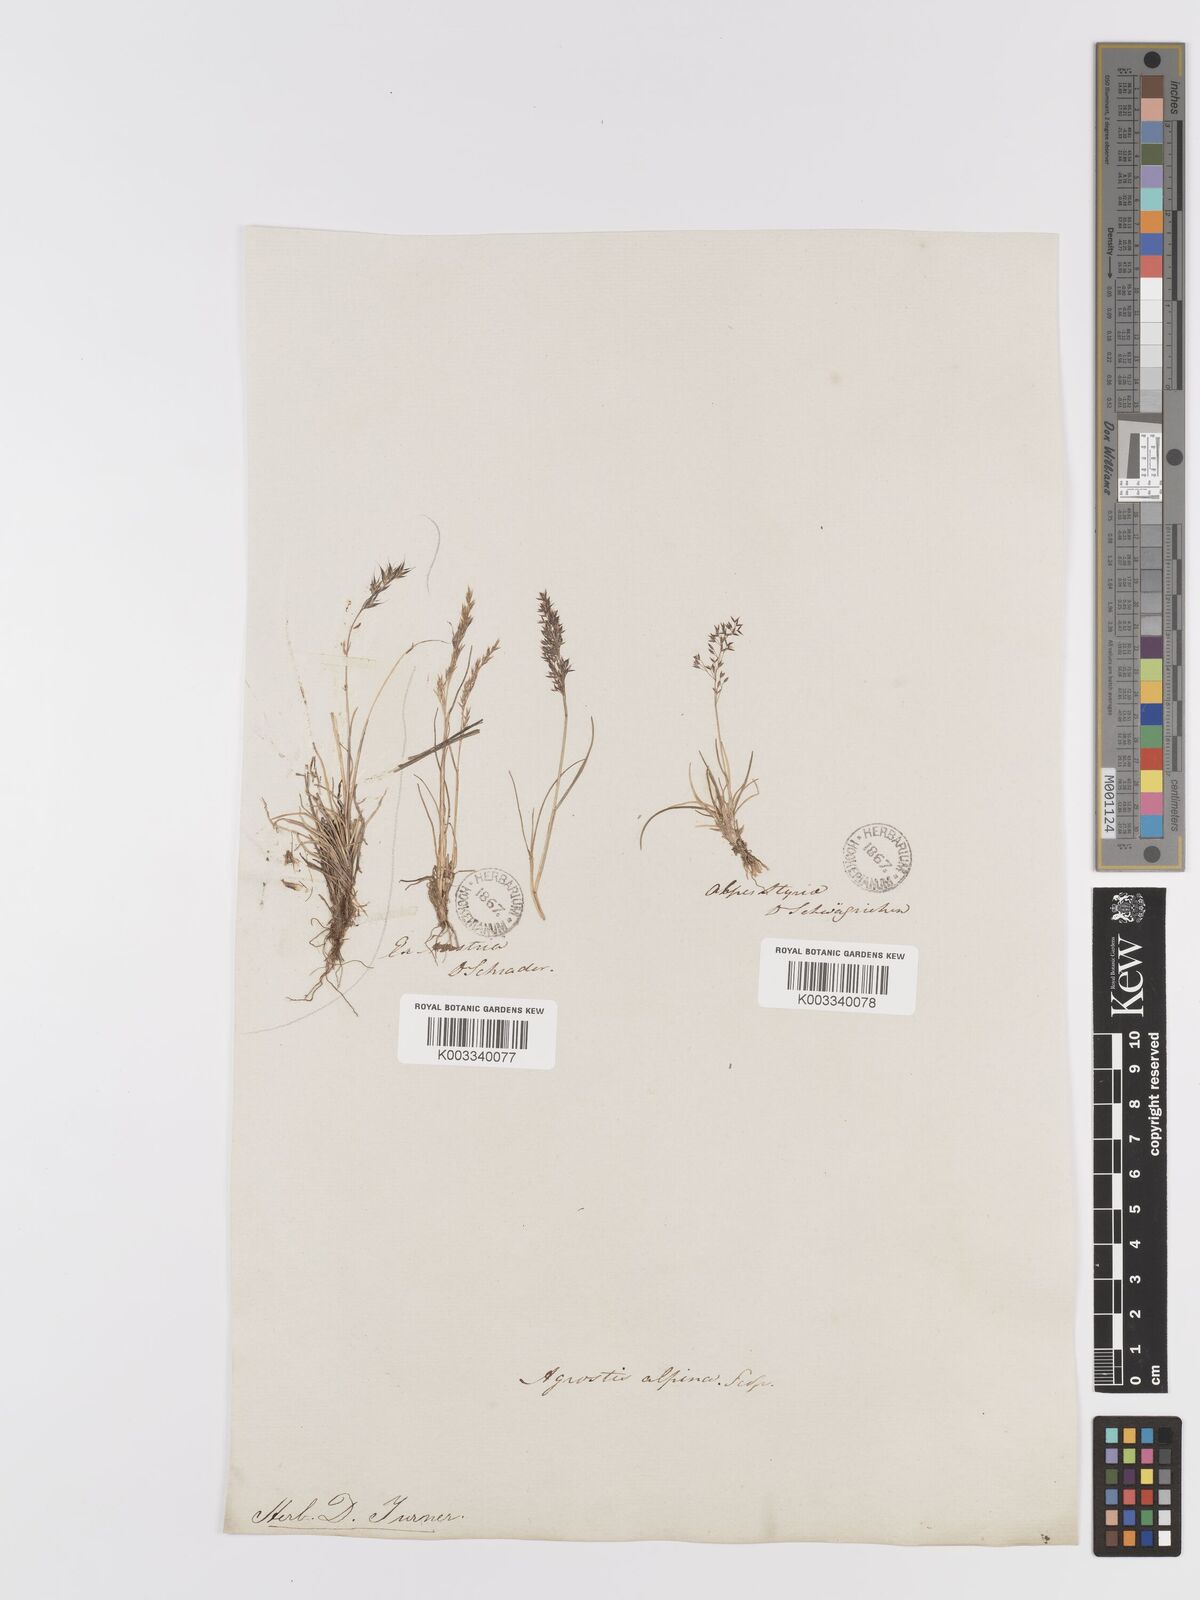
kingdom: Plantae
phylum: Tracheophyta
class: Liliopsida
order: Poales
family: Poaceae
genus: Agrostis
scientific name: Agrostis rupestris
